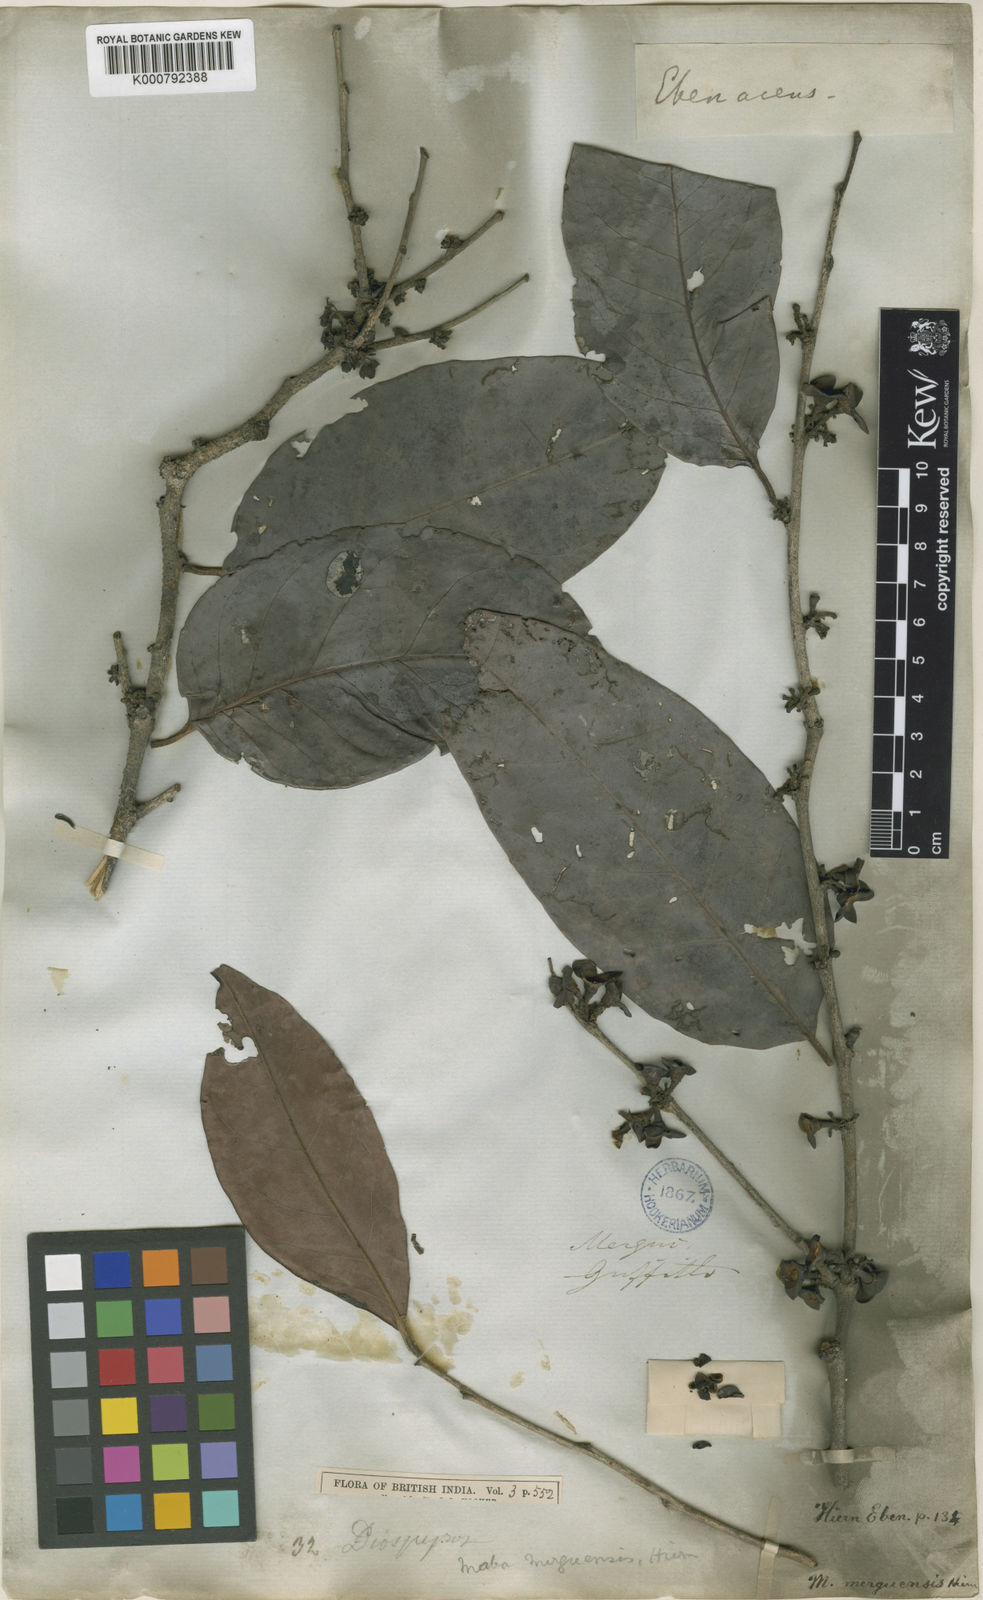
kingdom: Plantae
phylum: Tracheophyta
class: Magnoliopsida
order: Ericales
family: Ebenaceae
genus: Diospyros
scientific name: Diospyros venosa
